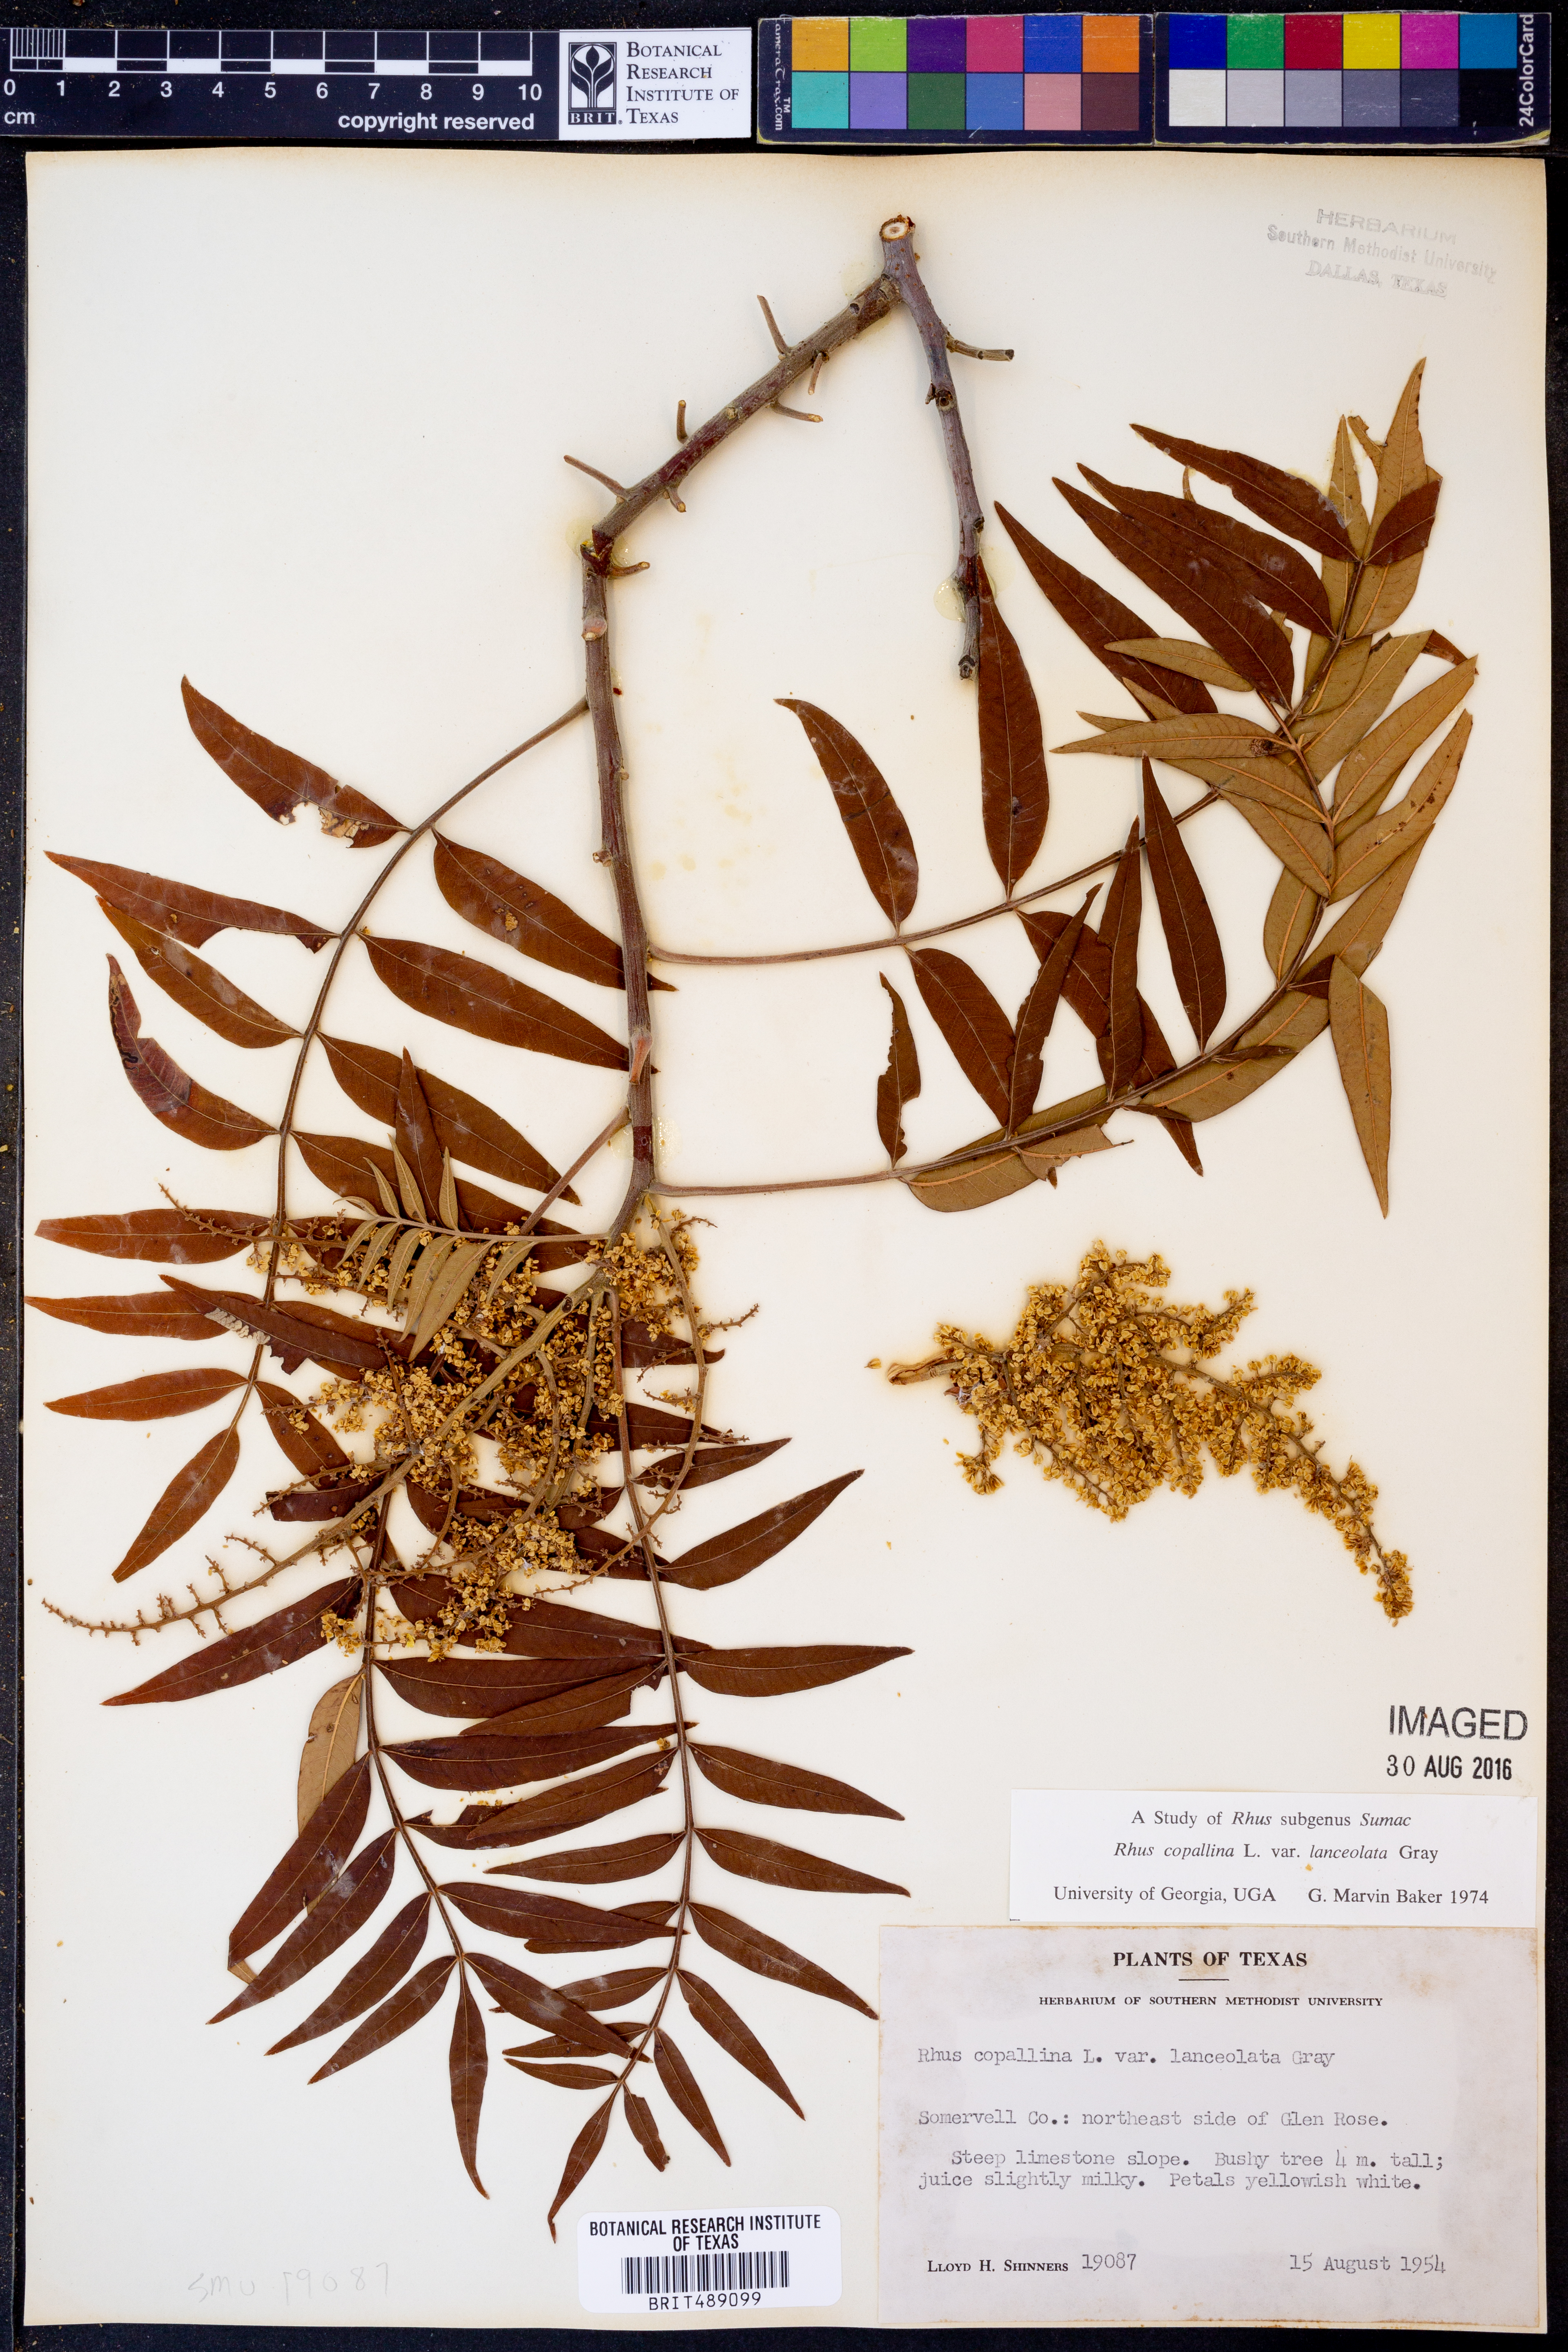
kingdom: Plantae
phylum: Tracheophyta
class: Magnoliopsida
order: Sapindales
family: Anacardiaceae
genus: Rhus
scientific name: Rhus lanceolata
